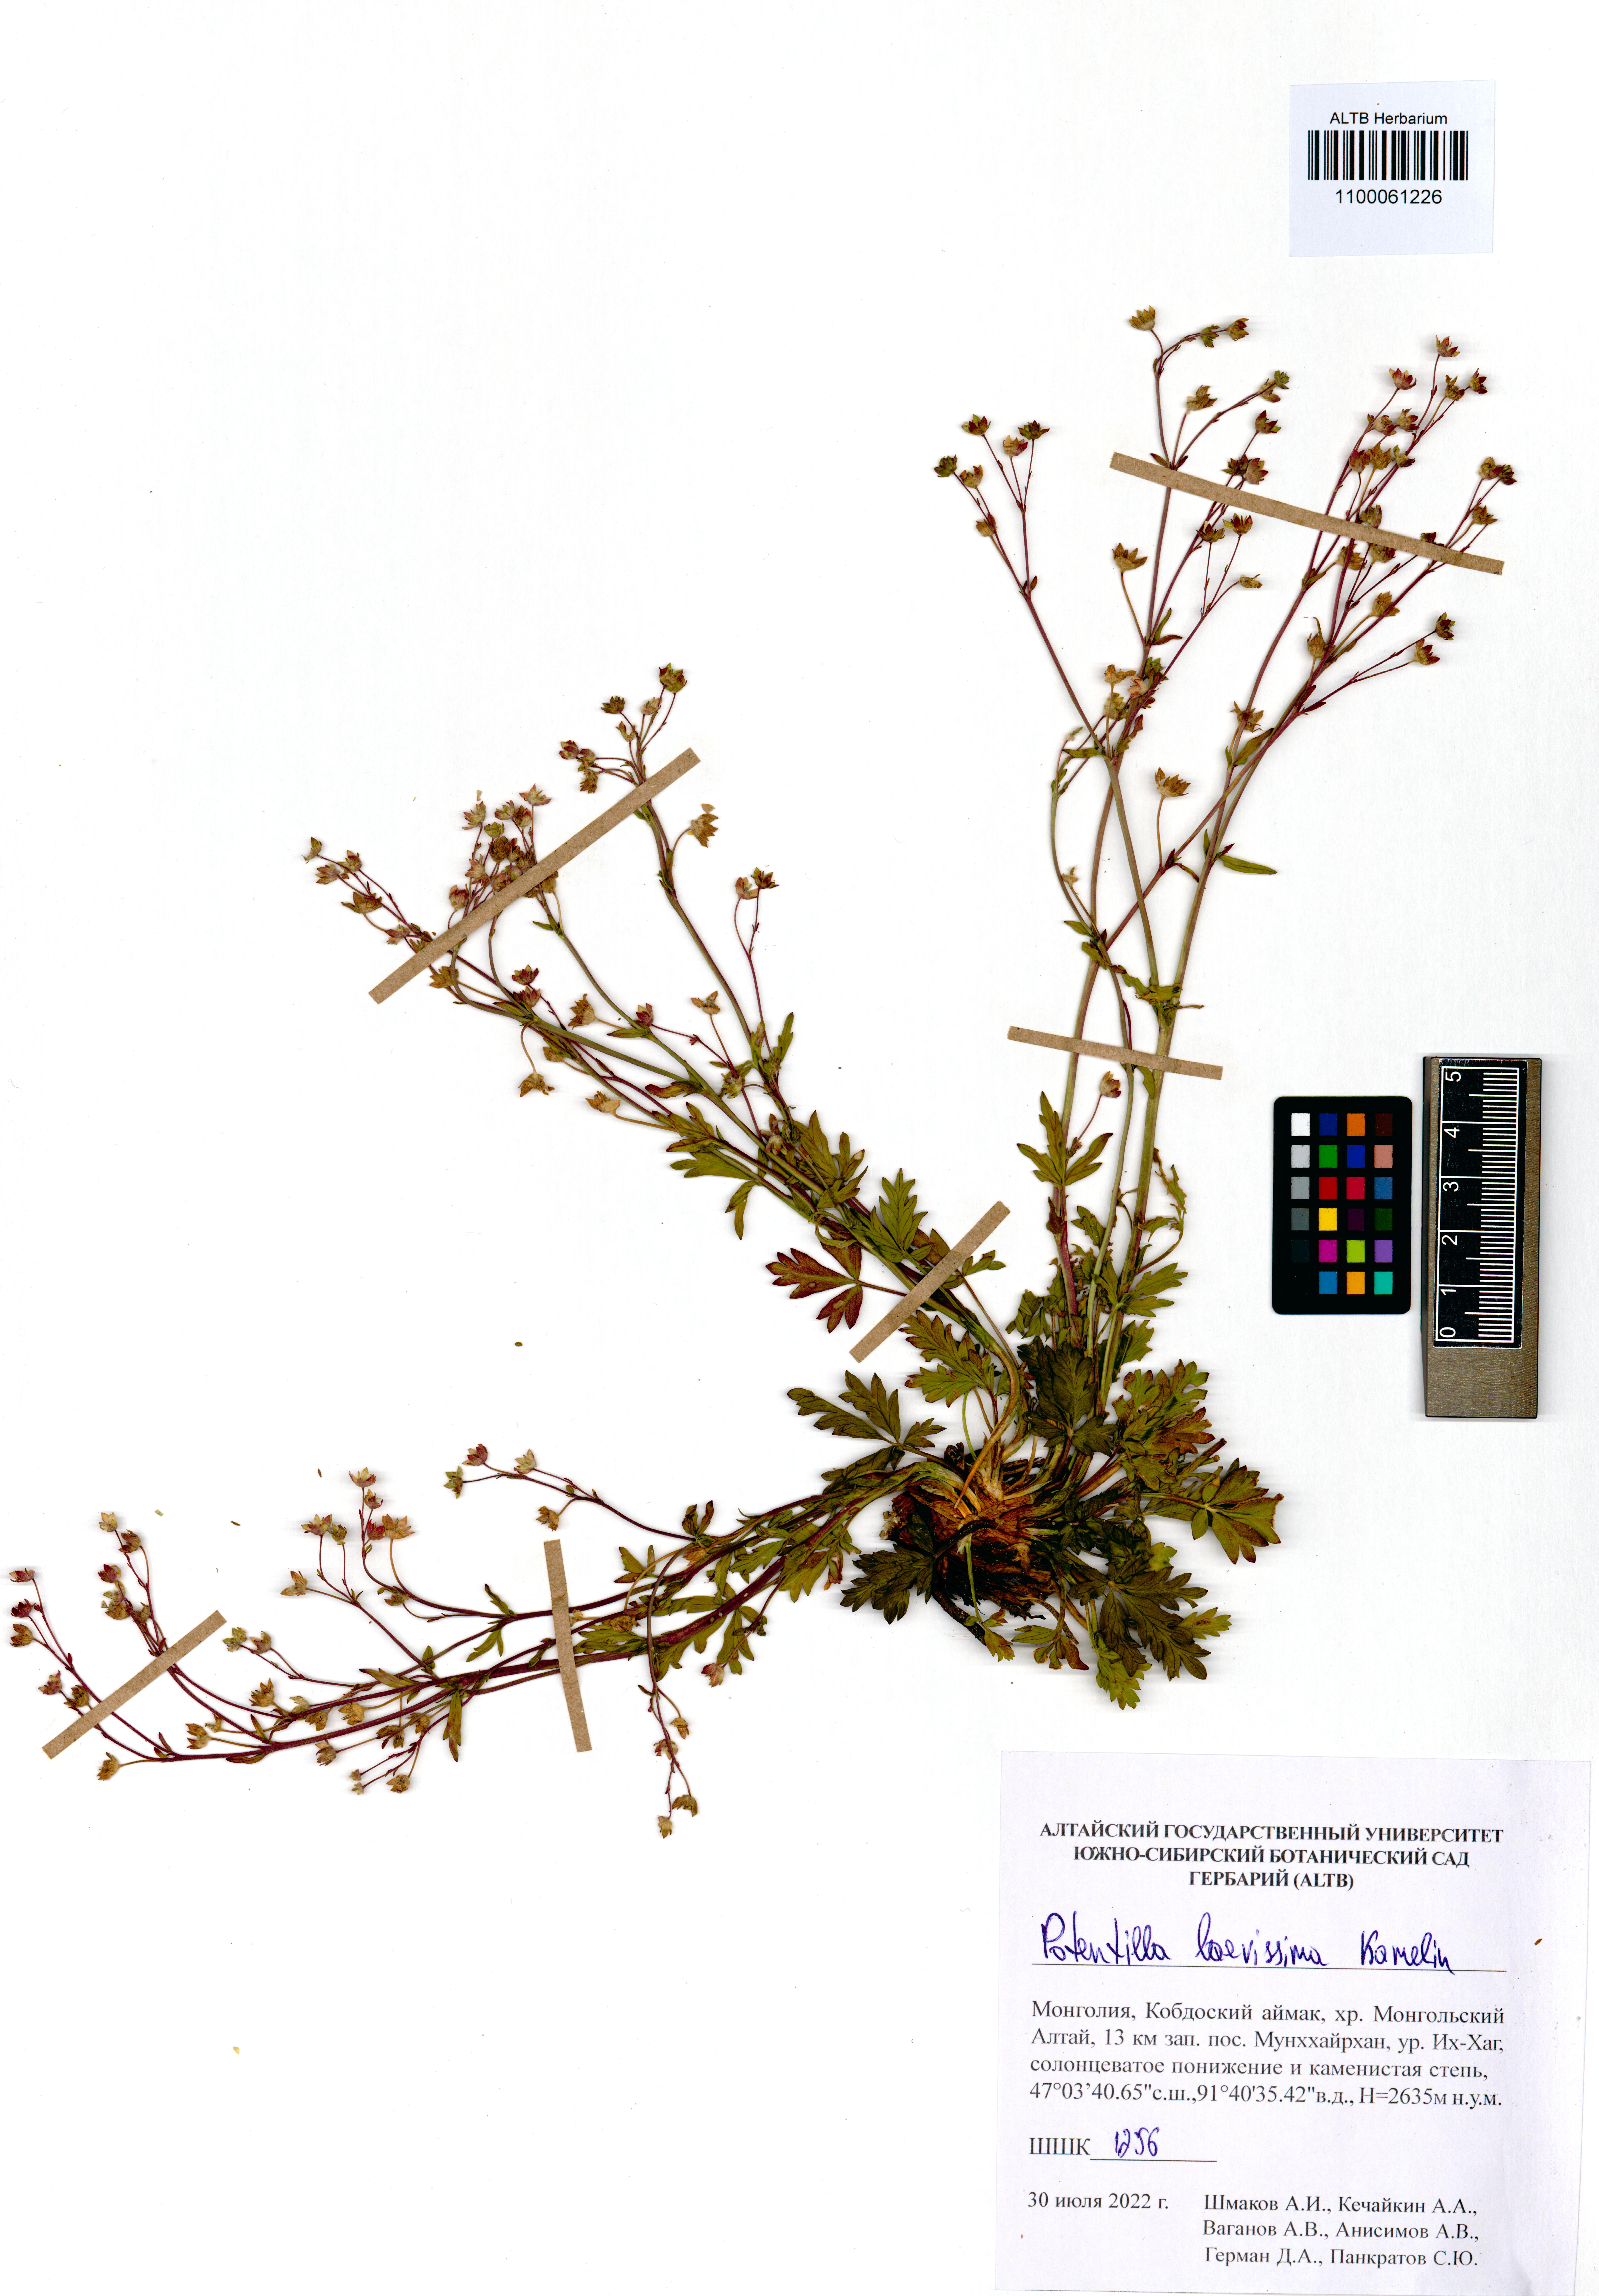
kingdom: Plantae
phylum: Tracheophyta
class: Magnoliopsida
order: Rosales
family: Rosaceae
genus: Potentilla
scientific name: Potentilla laevissima
